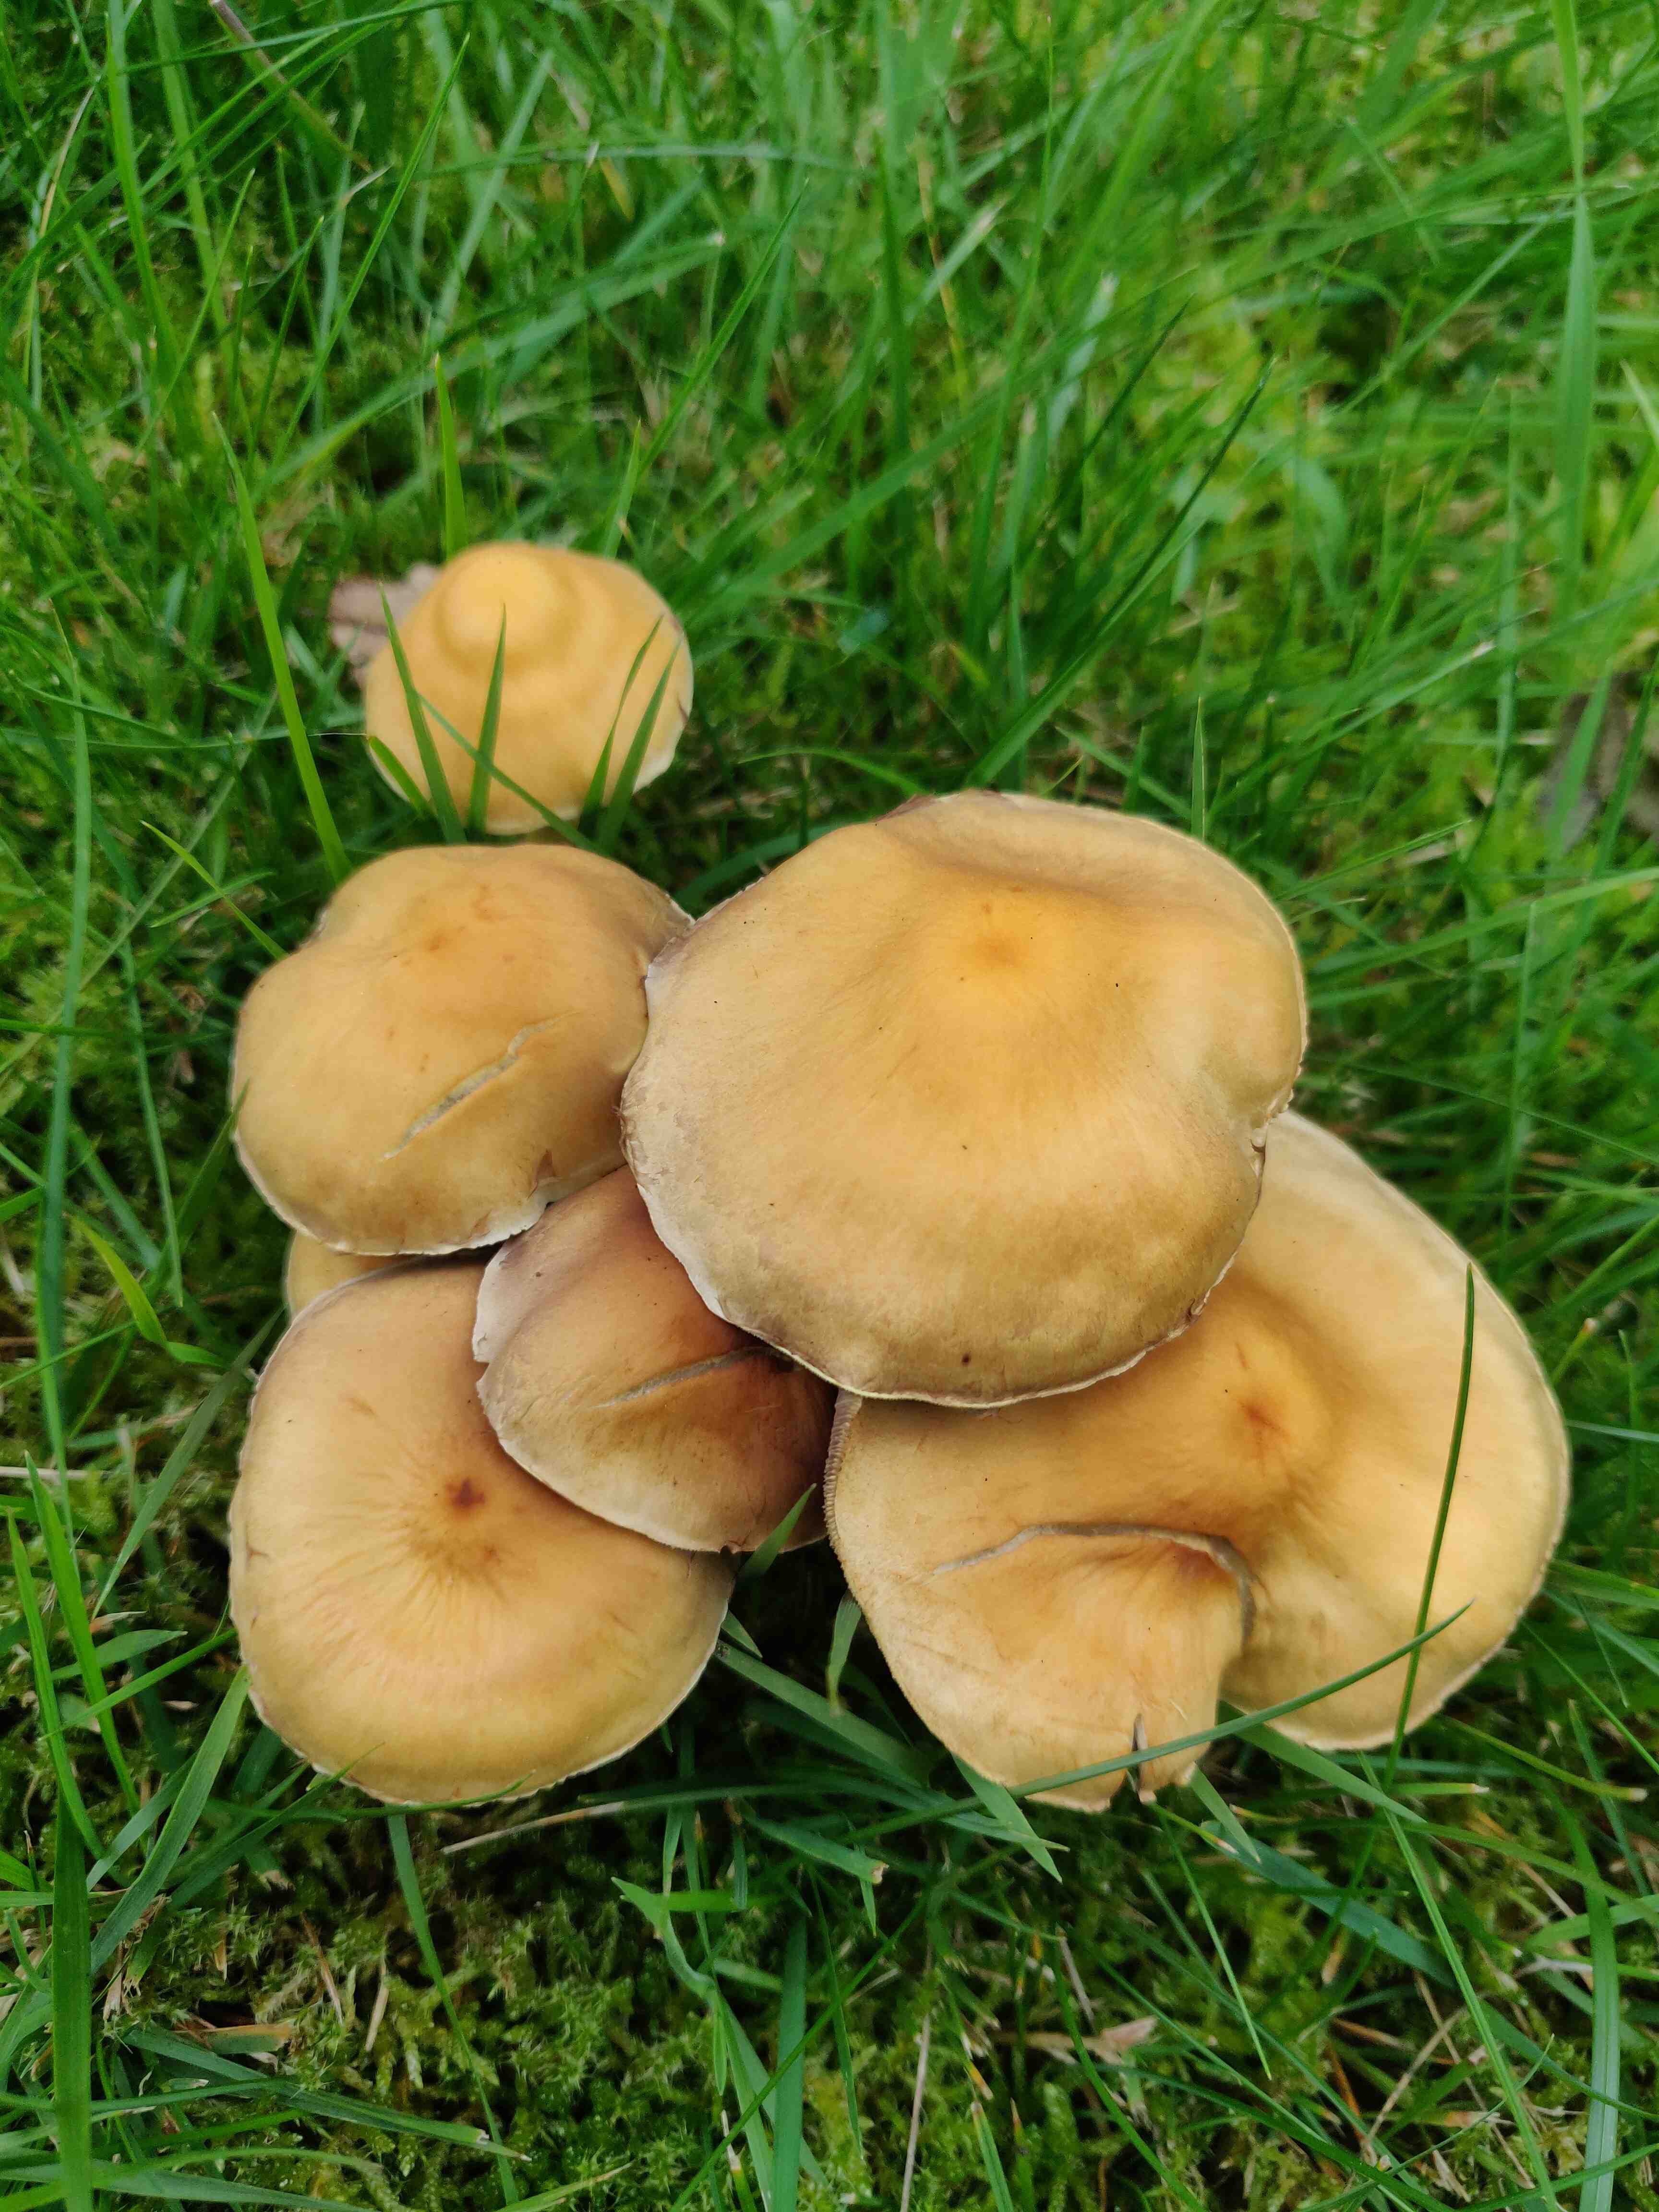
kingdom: Fungi
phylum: Basidiomycota
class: Agaricomycetes
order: Agaricales
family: Strophariaceae
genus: Hypholoma
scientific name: Hypholoma fasciculare
